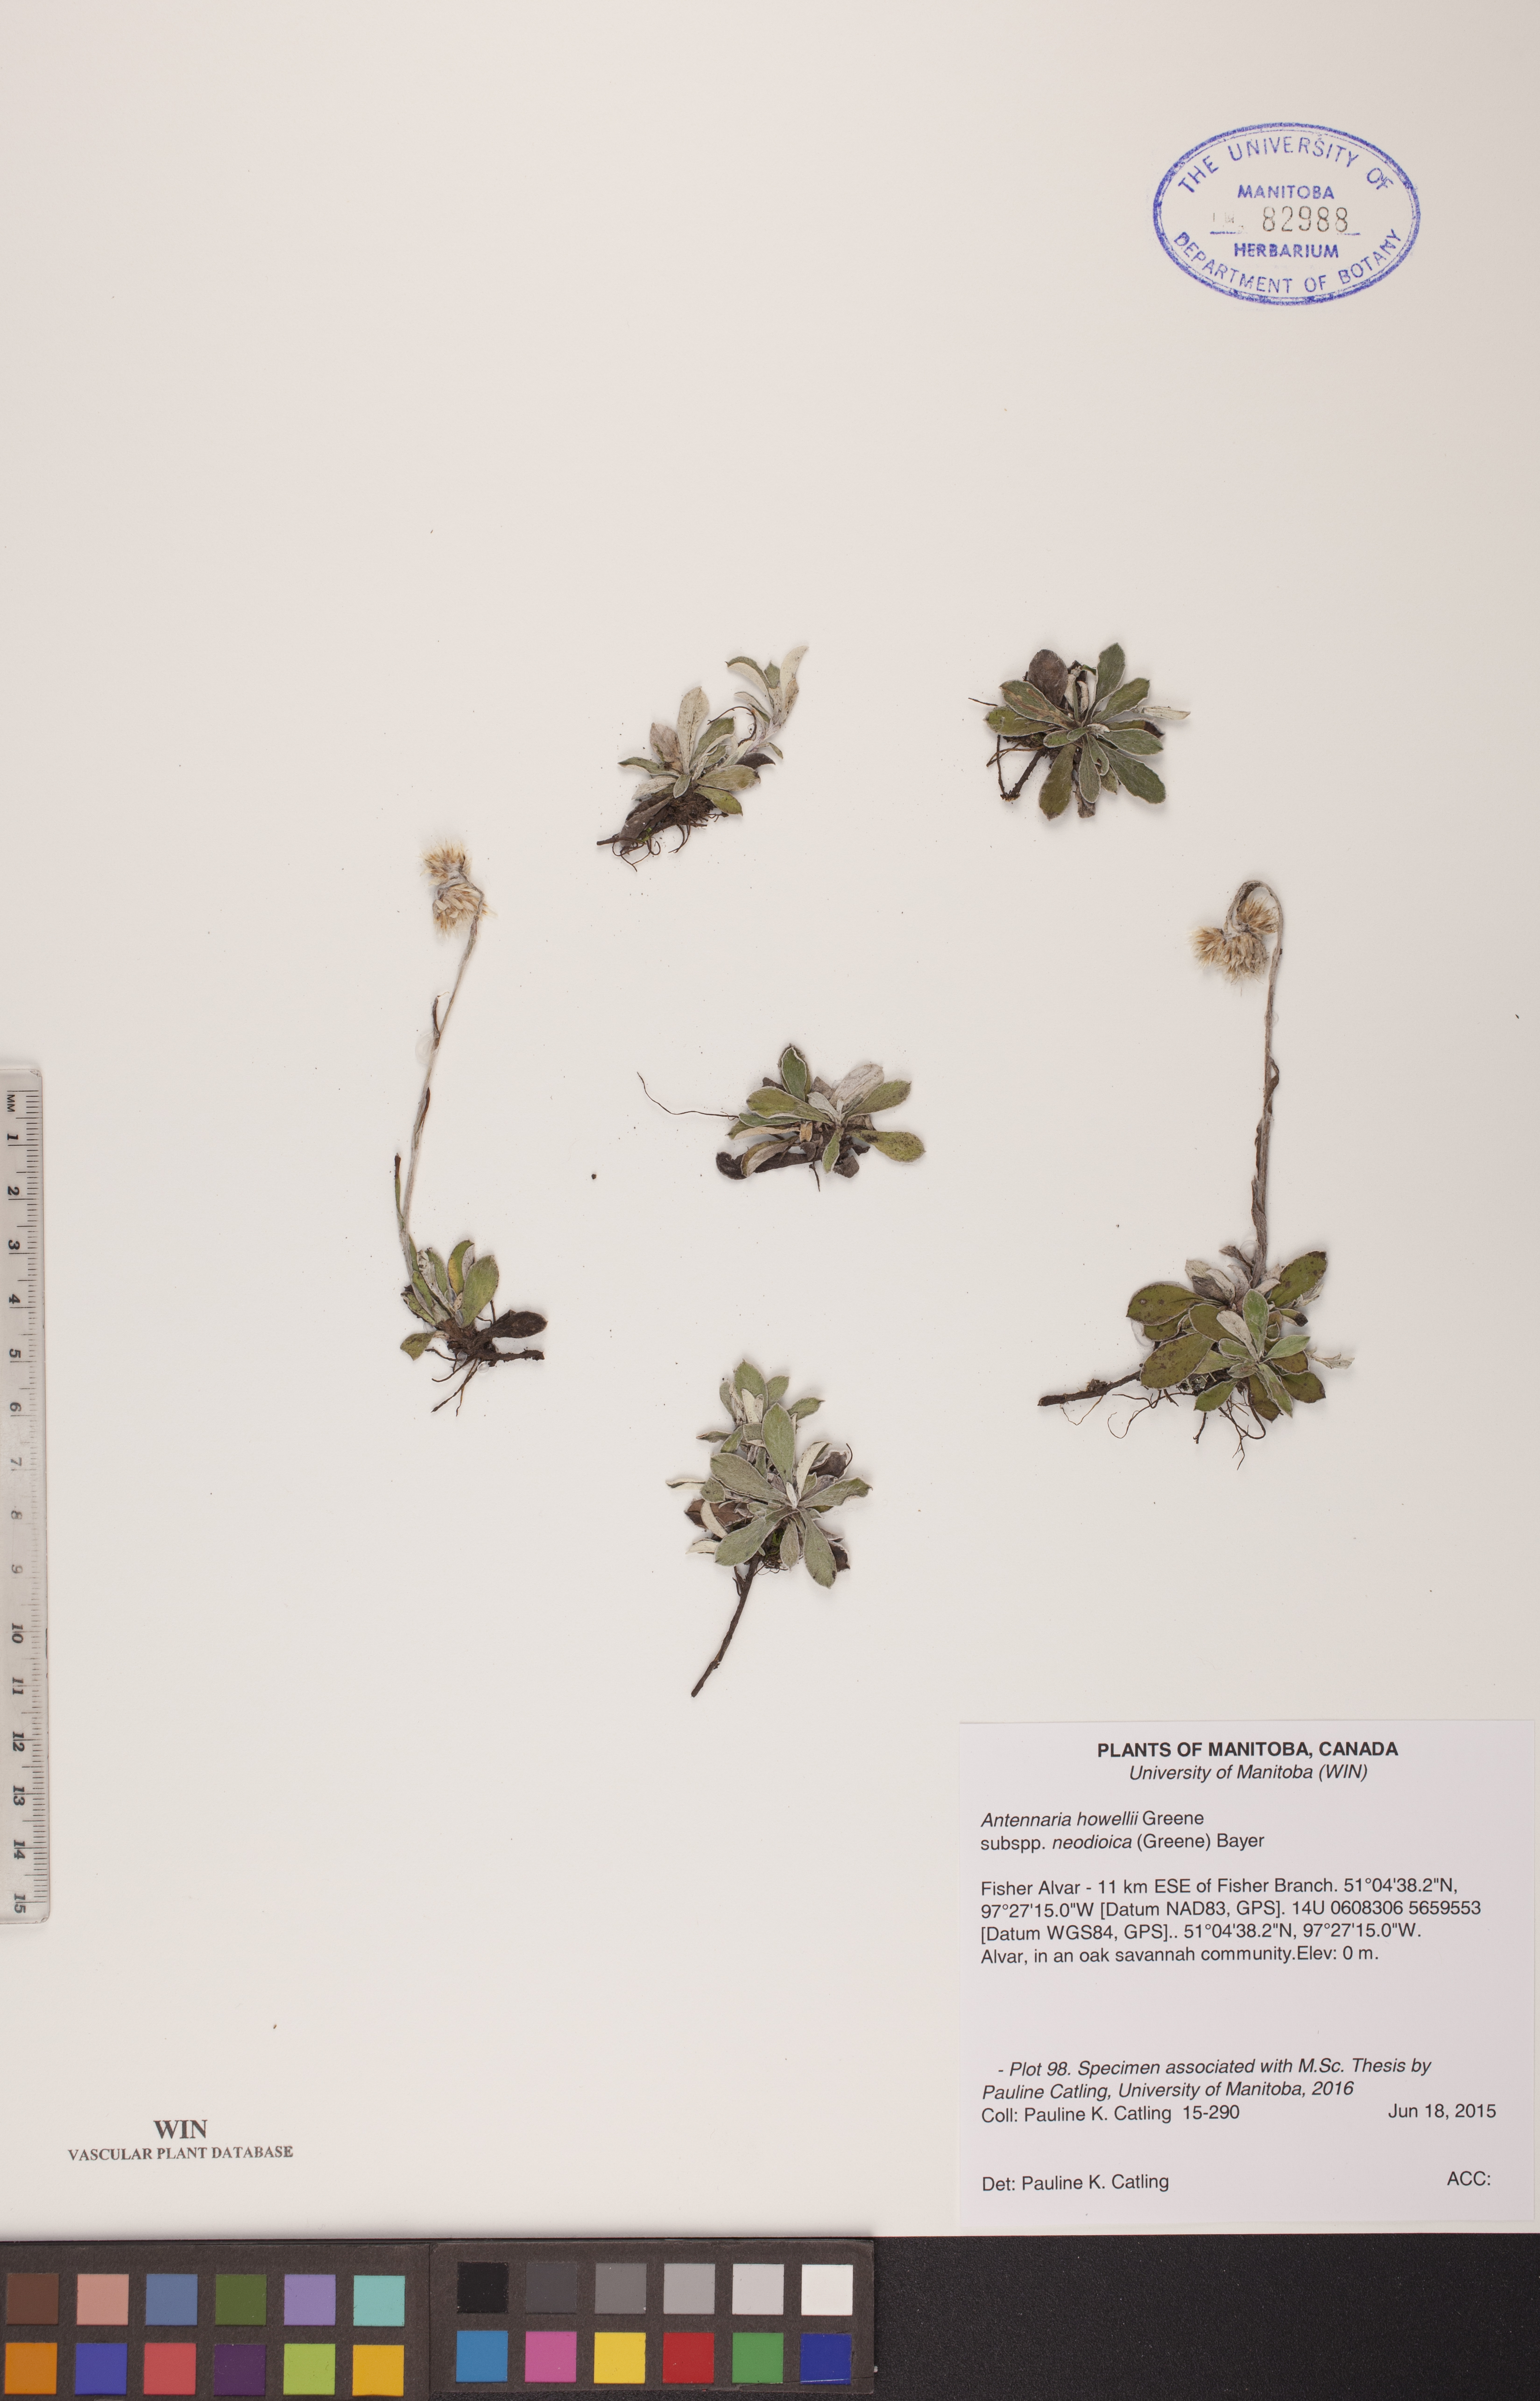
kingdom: Plantae
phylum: Tracheophyta
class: Magnoliopsida
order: Asterales
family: Asteraceae
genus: Antennaria
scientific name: Antennaria howellii
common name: Howell's pussytoes
